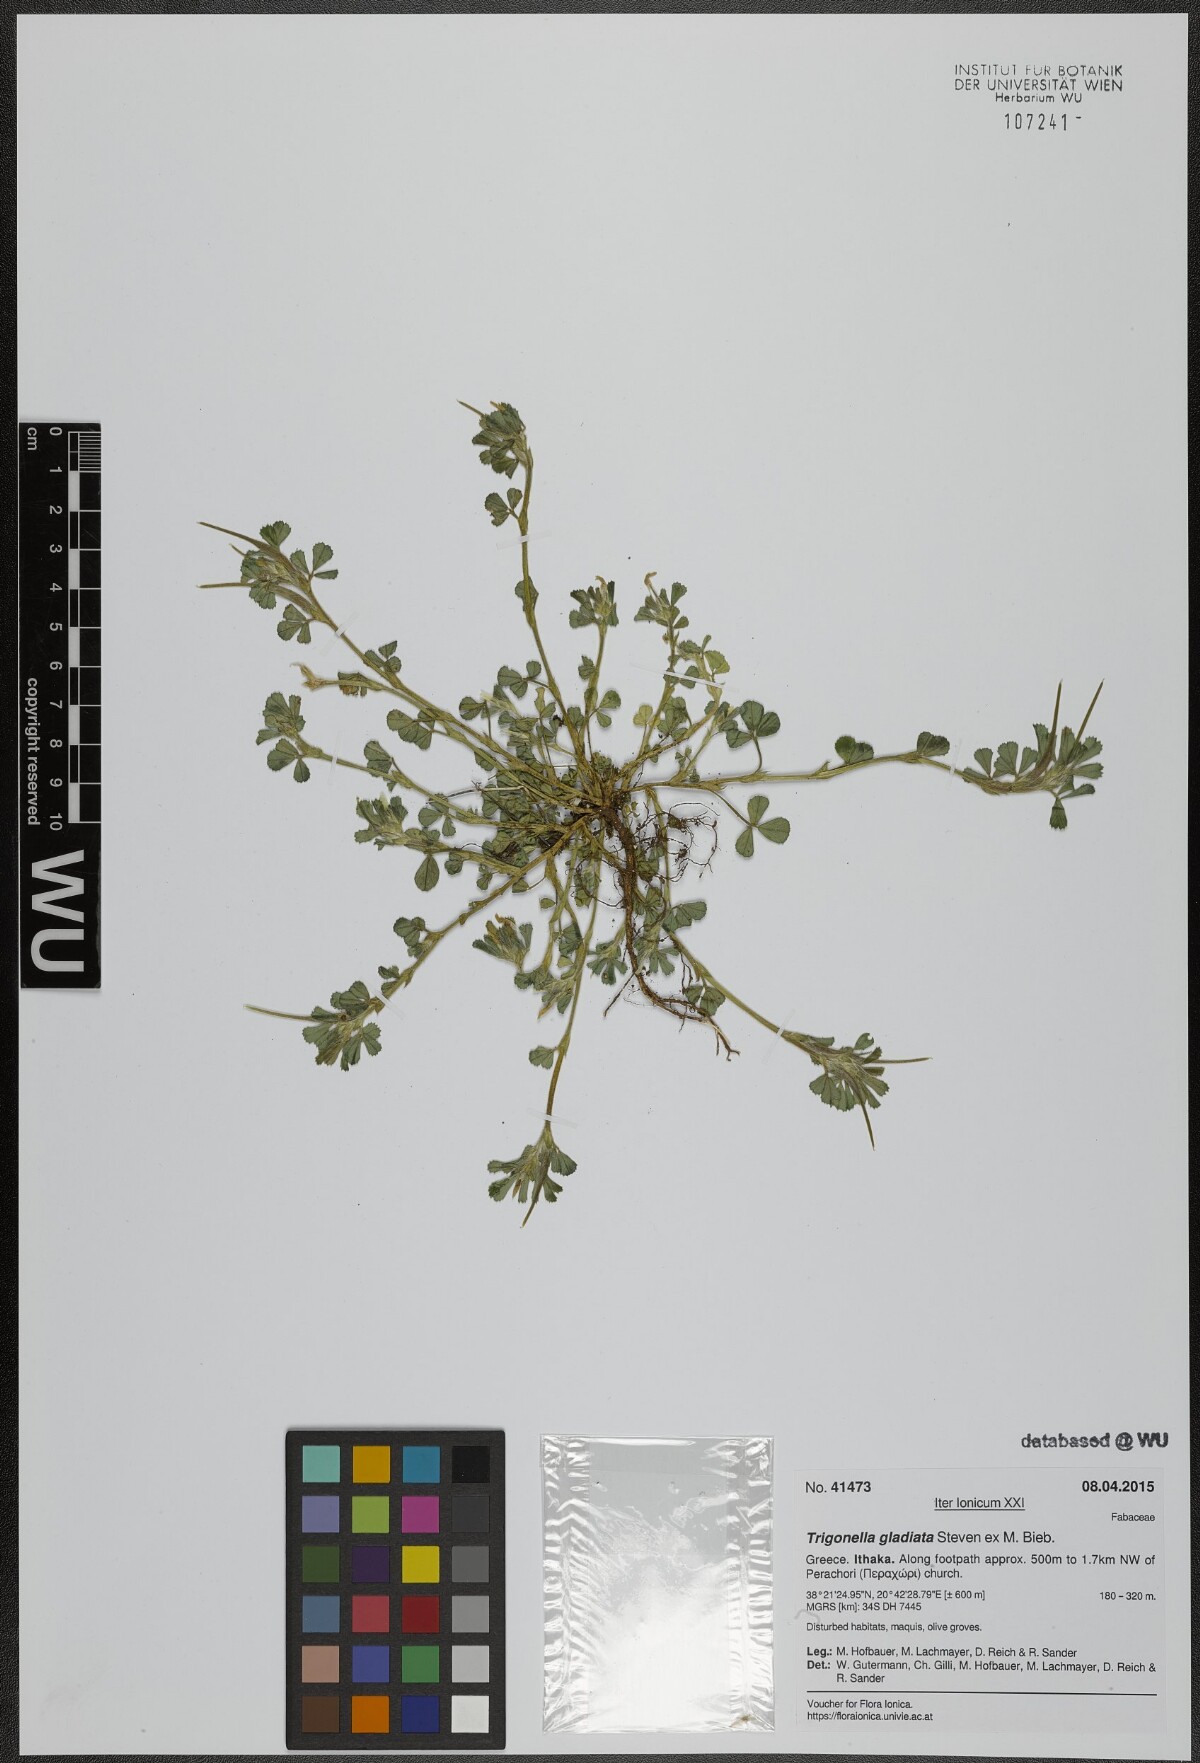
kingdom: Plantae
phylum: Tracheophyta
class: Magnoliopsida
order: Fabales
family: Fabaceae
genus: Trigonella
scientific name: Trigonella gladiata
